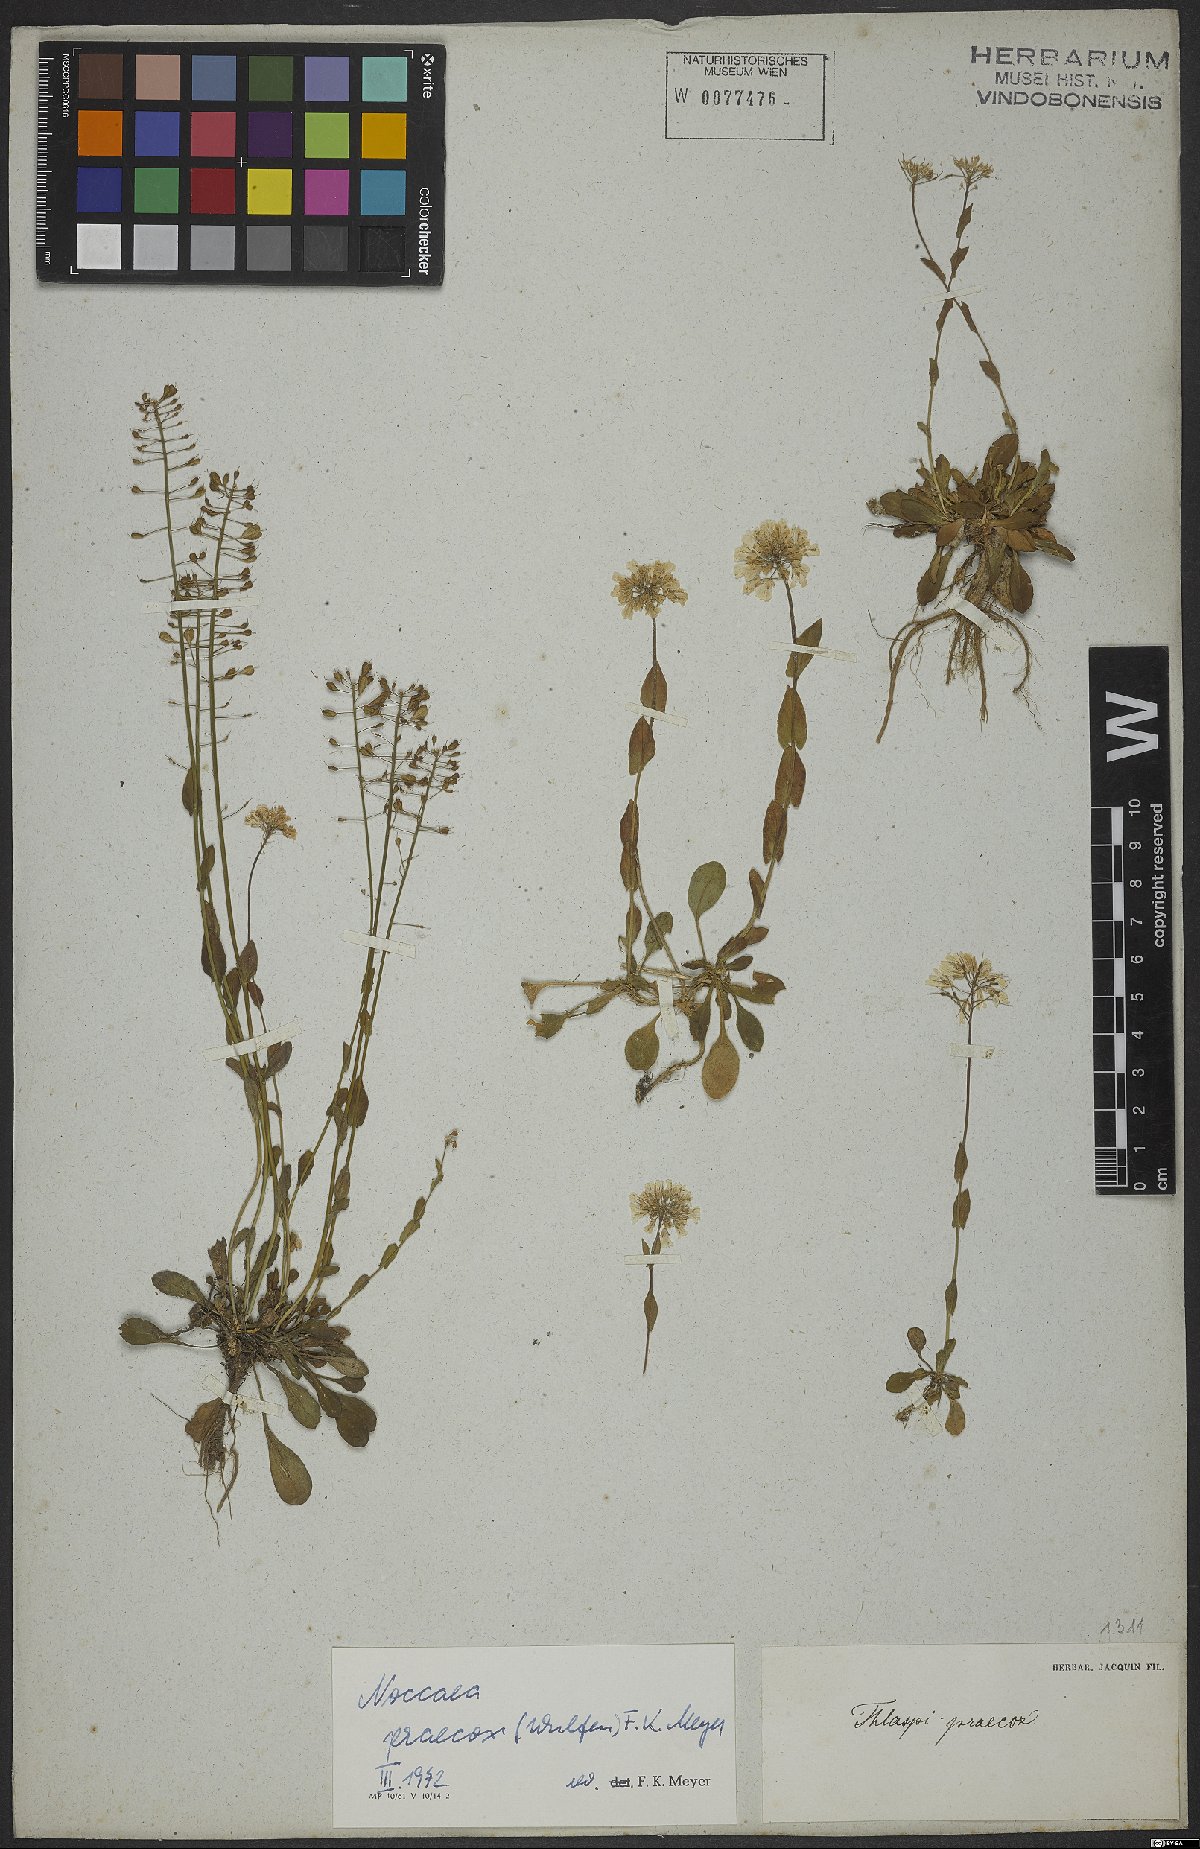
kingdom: Plantae
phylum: Tracheophyta
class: Magnoliopsida
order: Brassicales
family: Brassicaceae
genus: Noccaea
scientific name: Noccaea praecox
